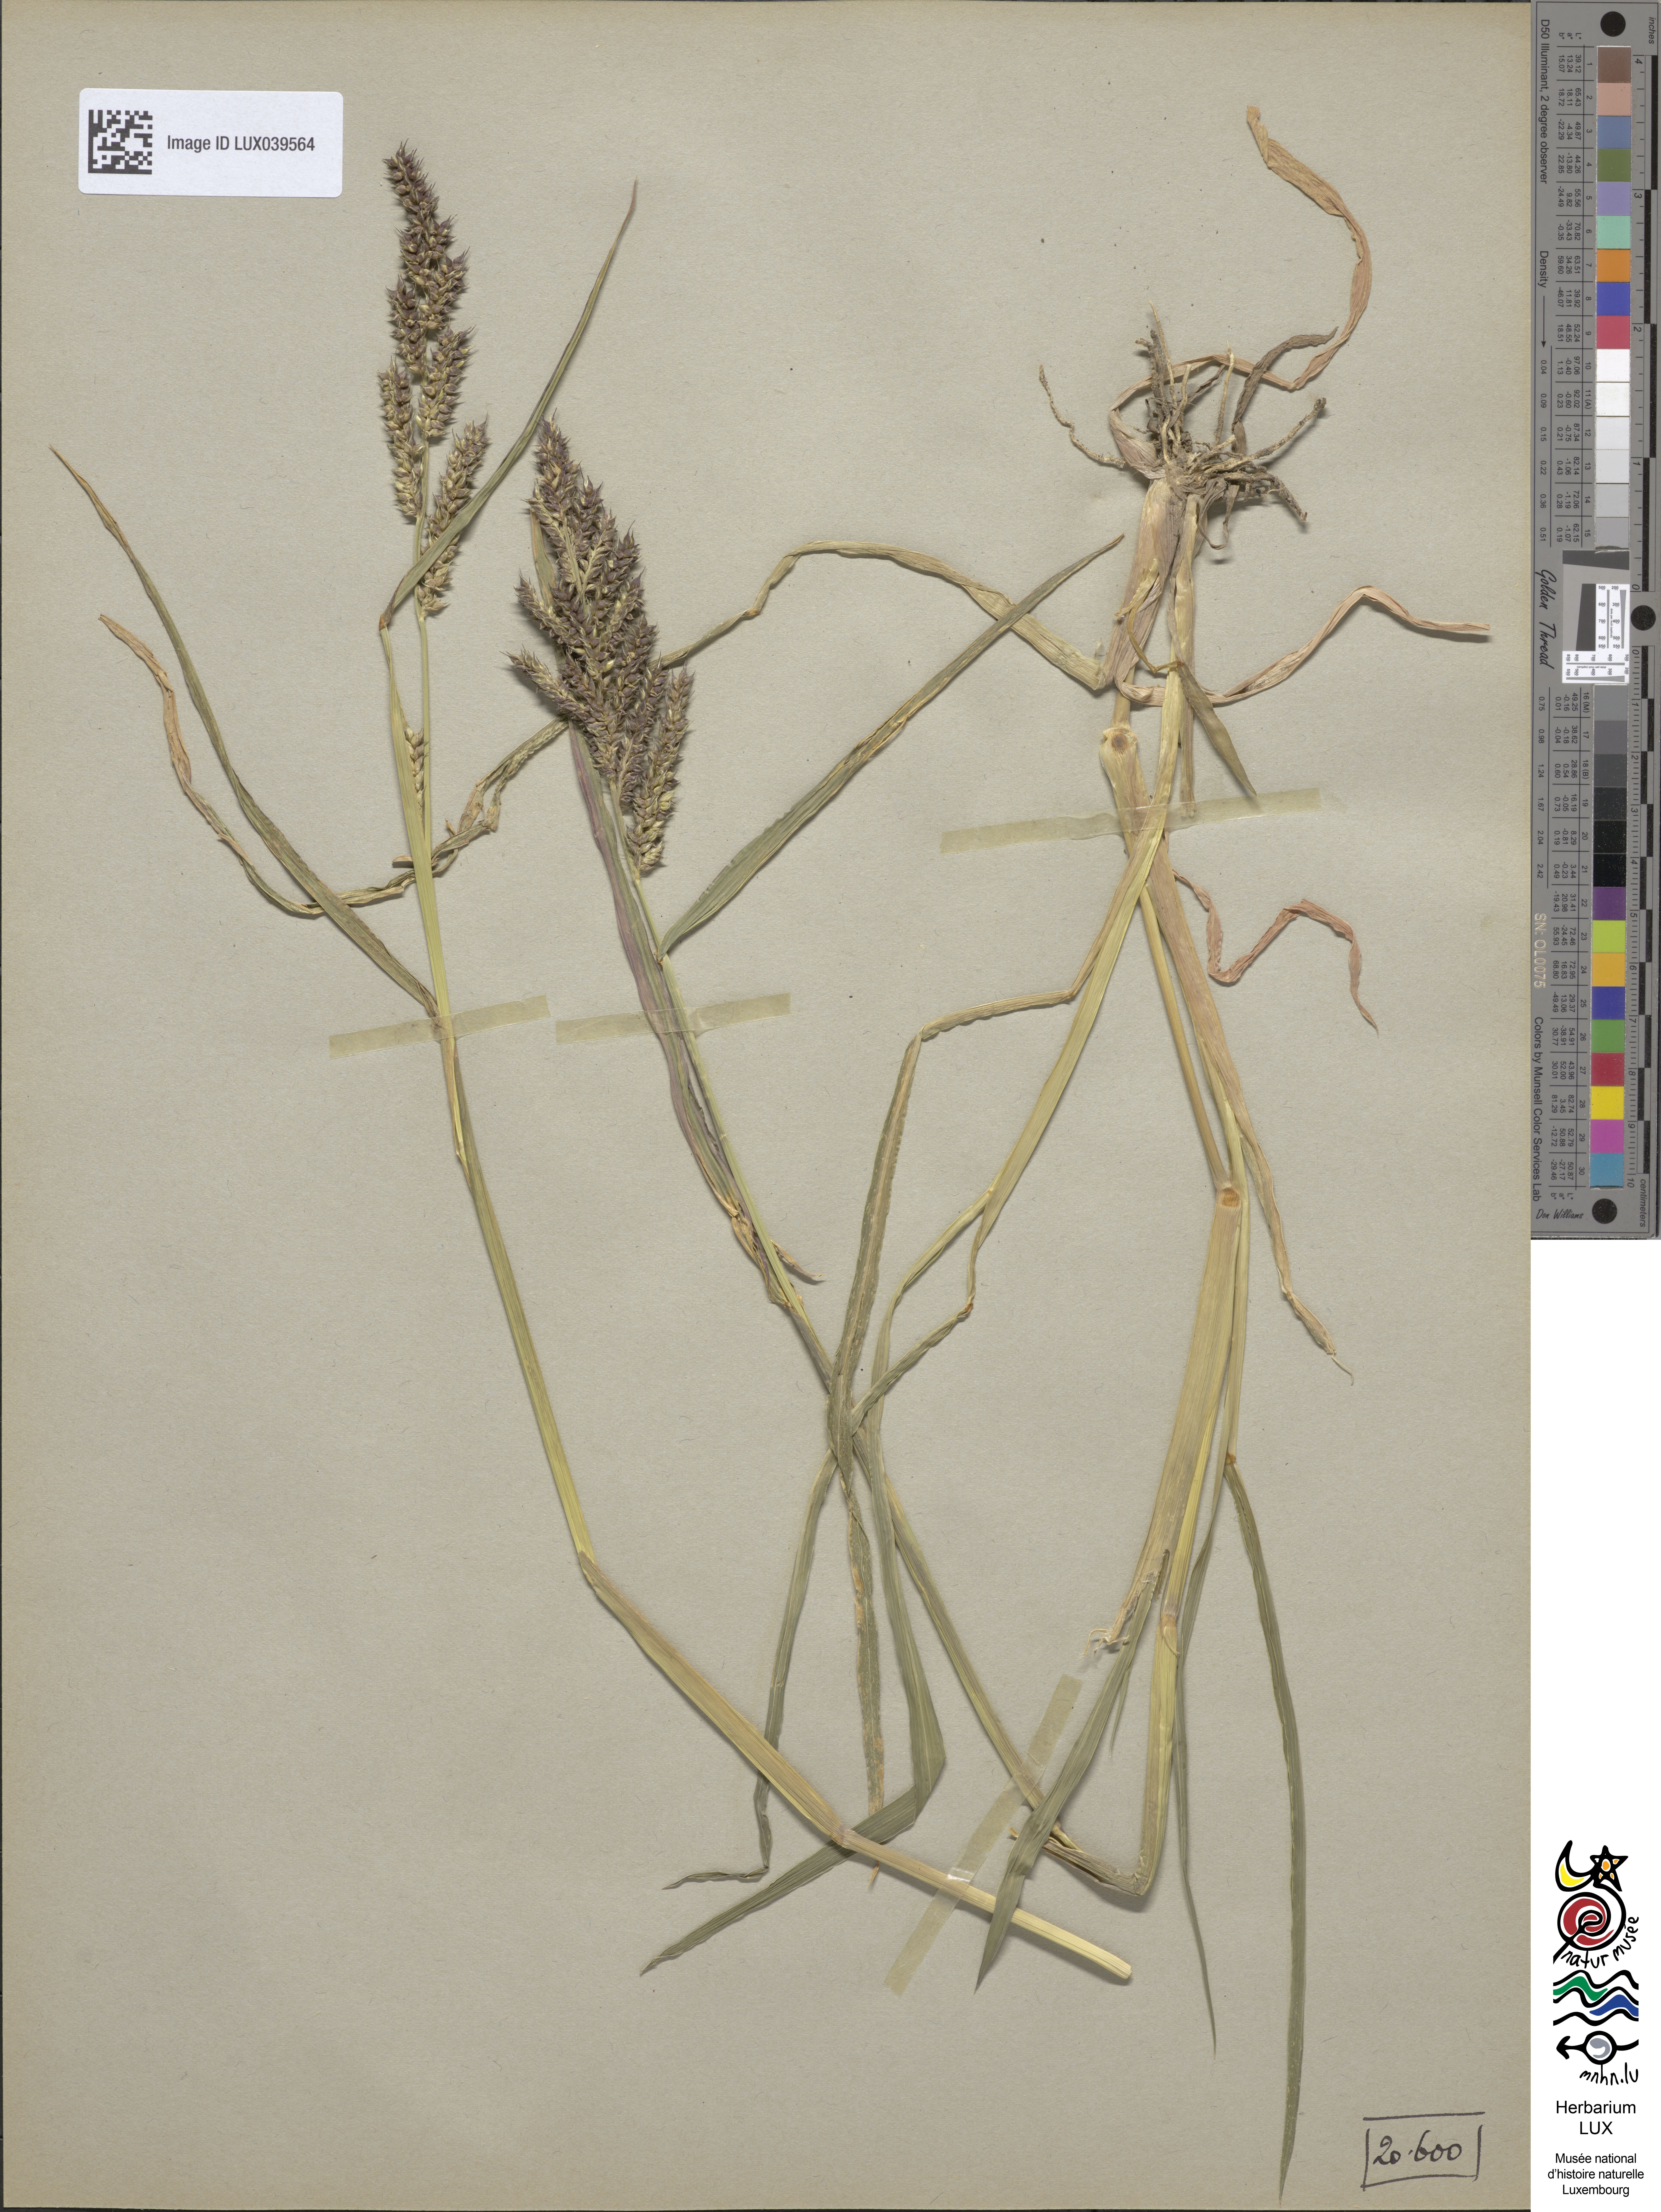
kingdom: Plantae
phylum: Tracheophyta
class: Liliopsida
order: Poales
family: Poaceae
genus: Echinochloa
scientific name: Echinochloa crus-galli
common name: Cockspur
